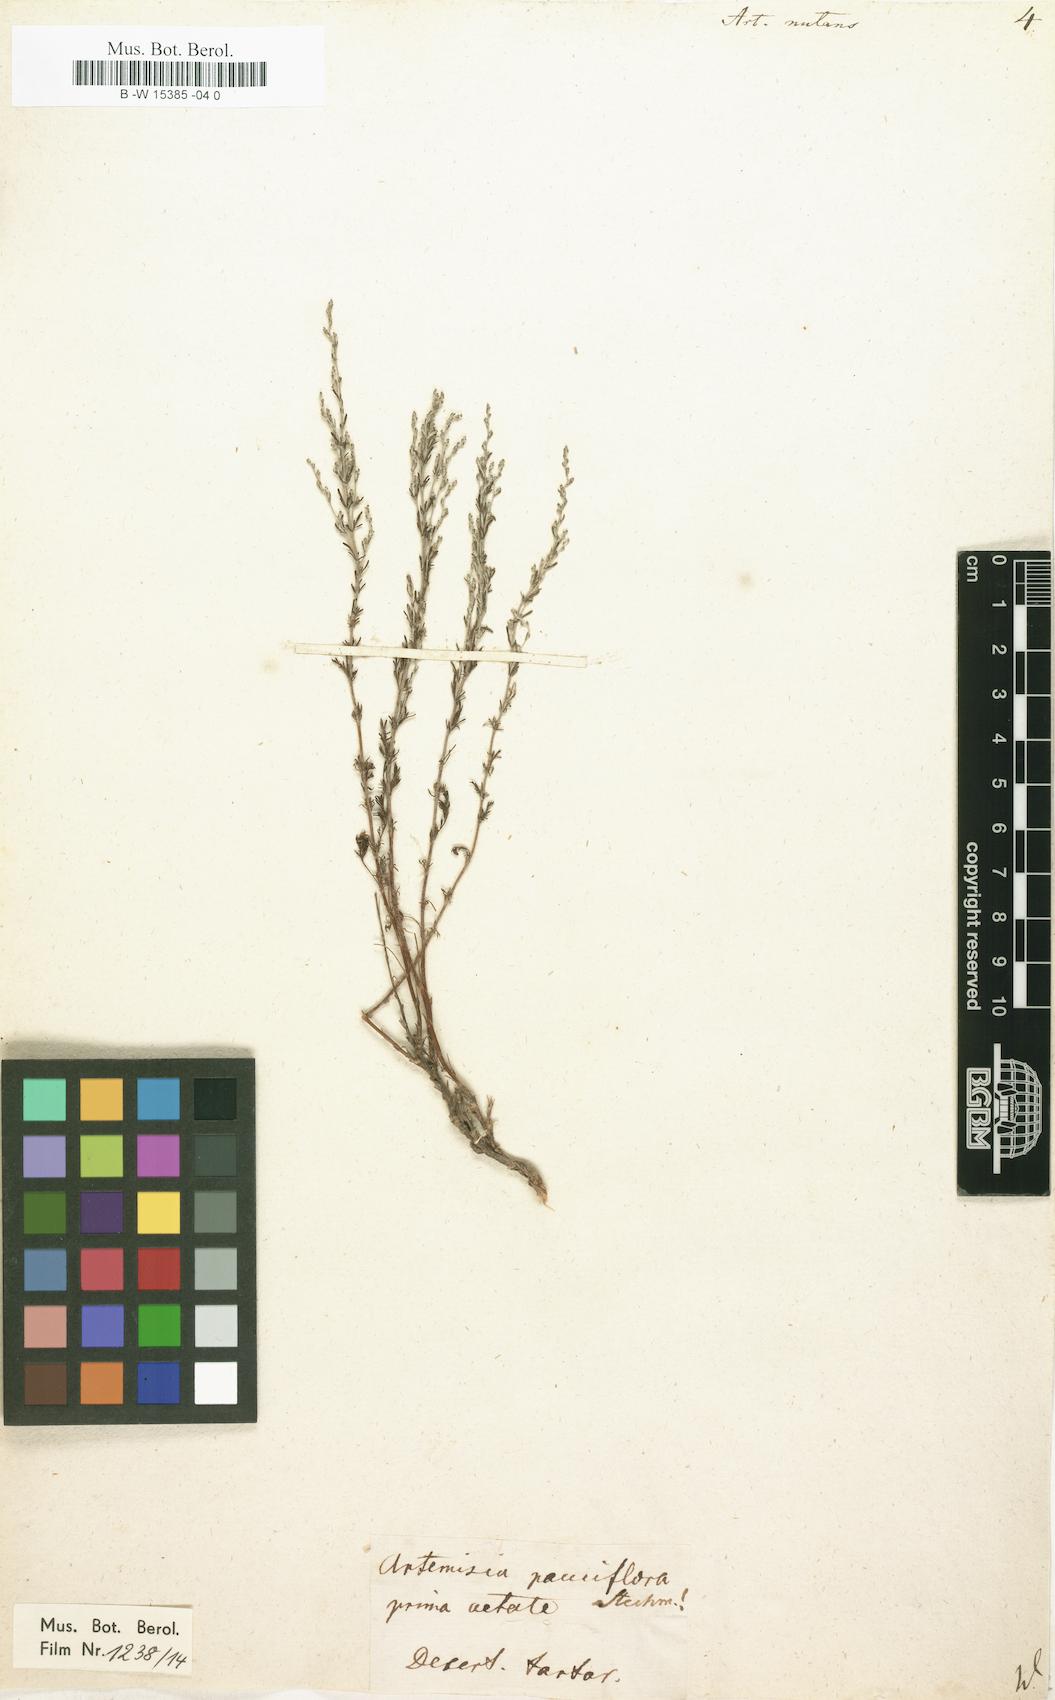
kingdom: Plantae
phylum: Tracheophyta
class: Magnoliopsida
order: Asterales
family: Asteraceae
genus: Artemisia
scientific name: Artemisia nutans
